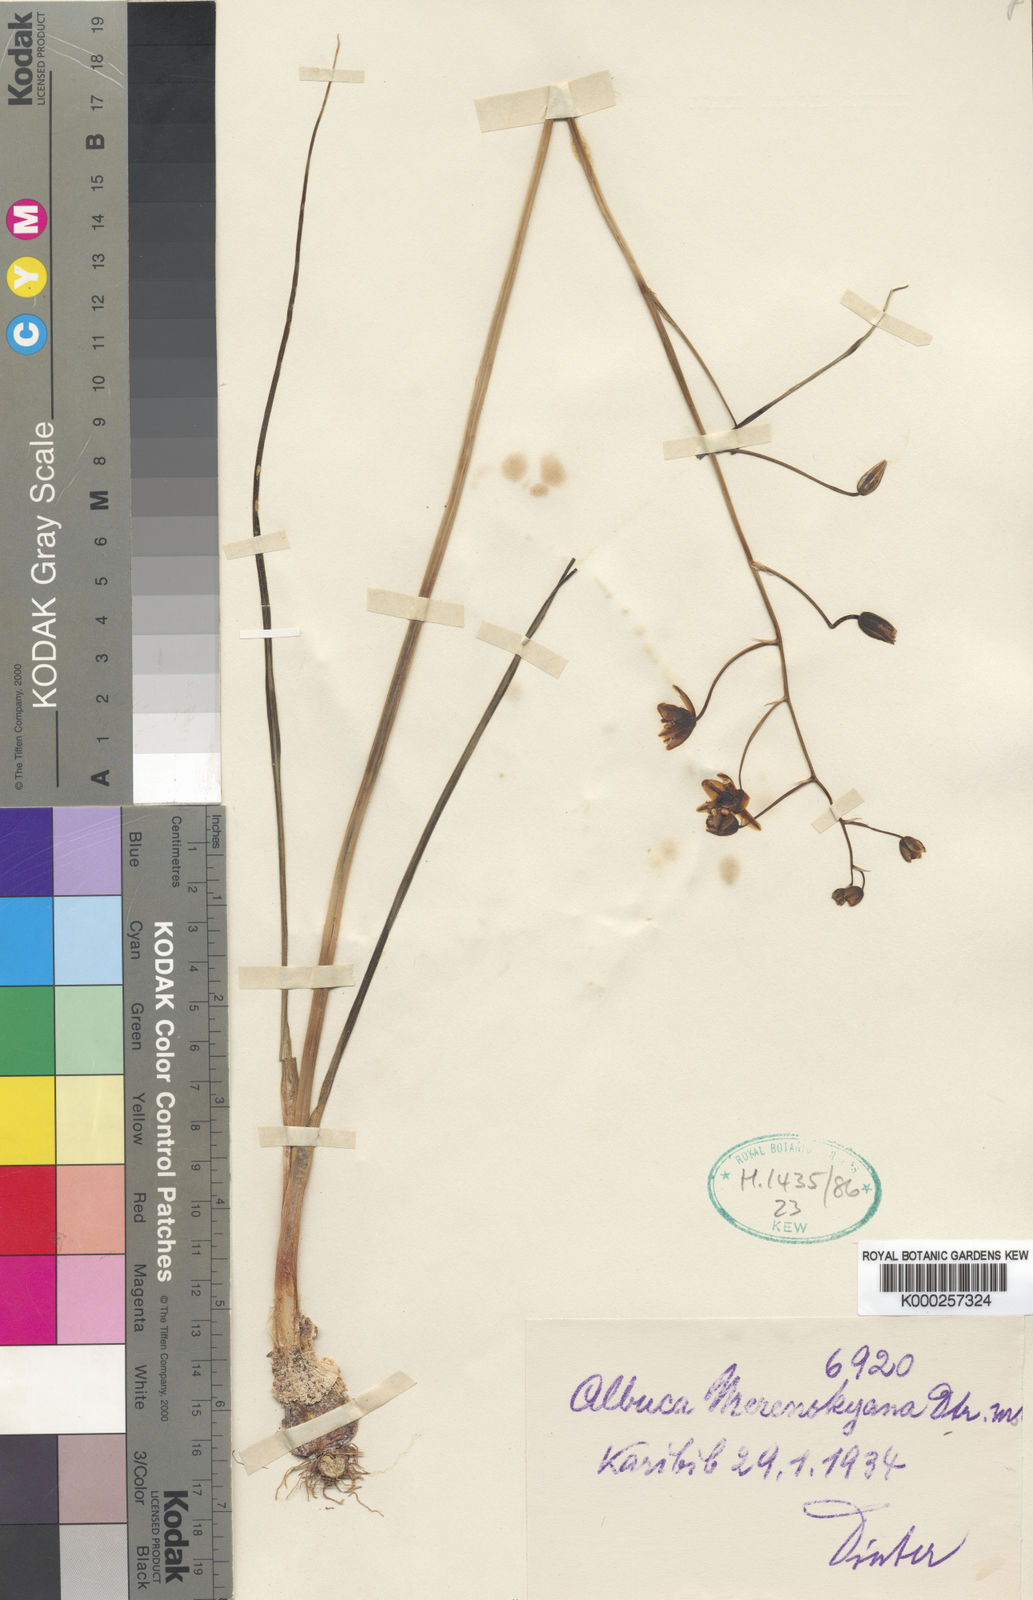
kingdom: Plantae
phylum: Tracheophyta
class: Liliopsida
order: Asparagales
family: Asparagaceae
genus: Albuca
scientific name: Albuca
